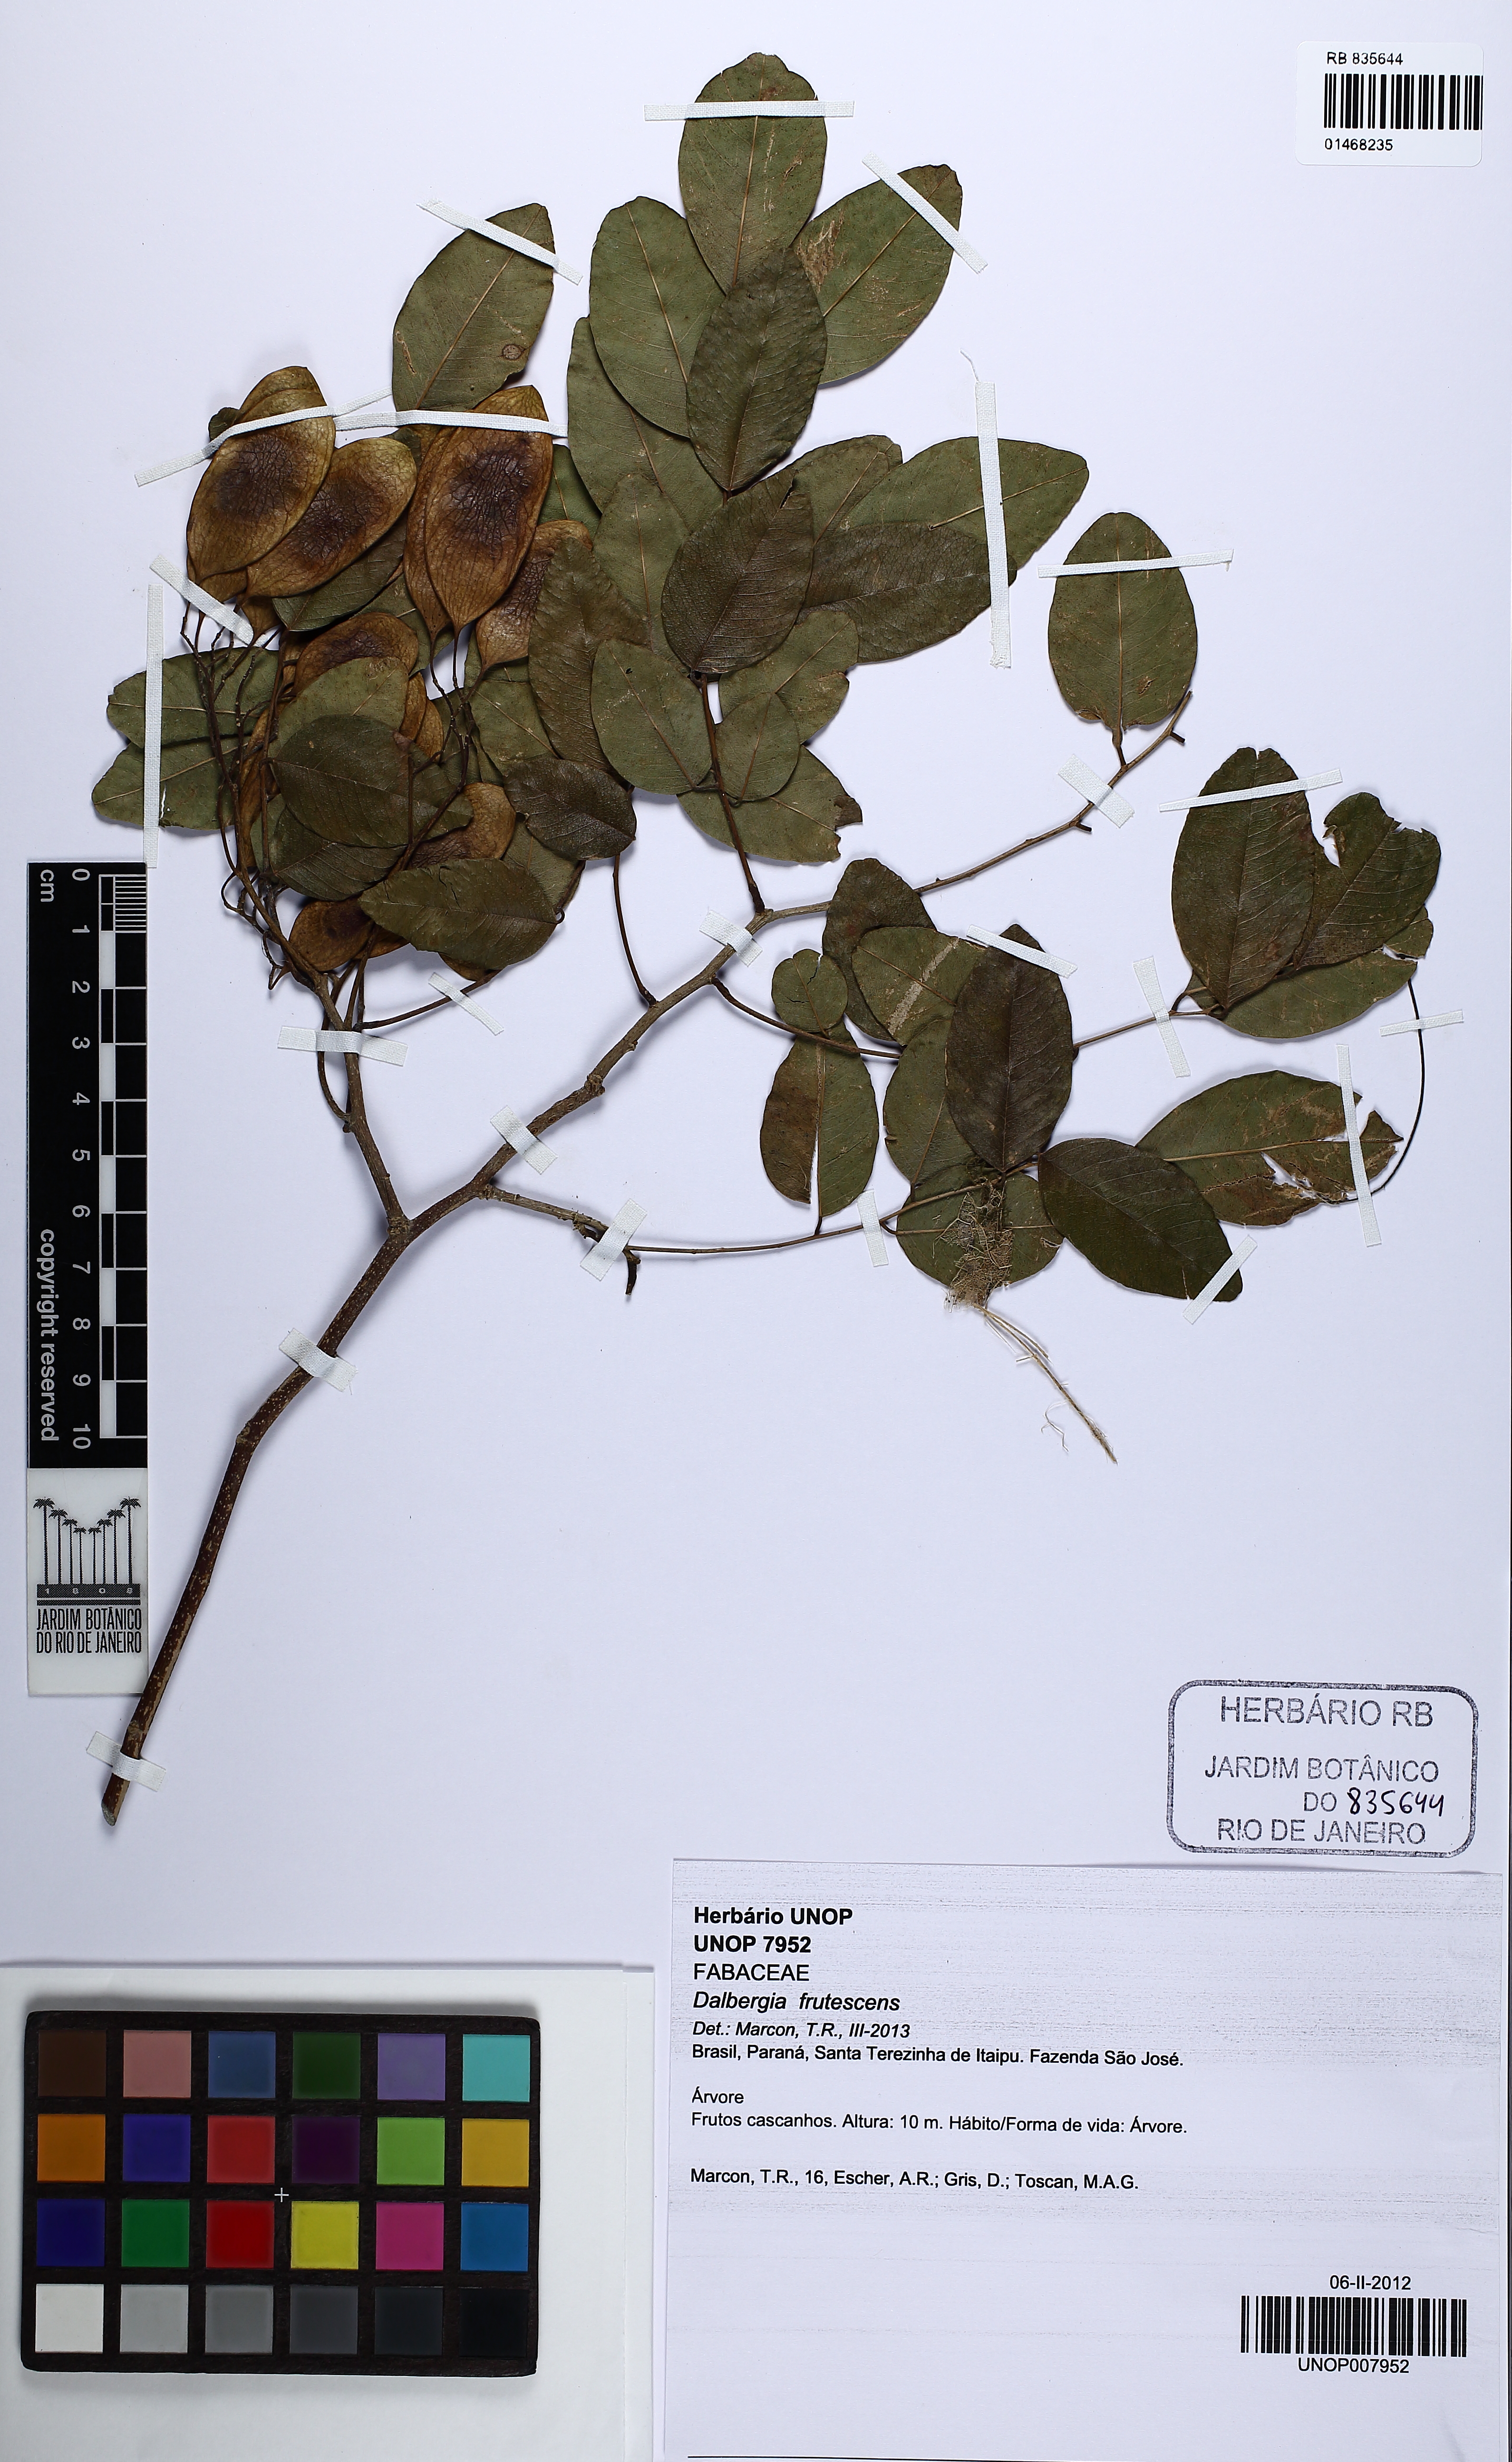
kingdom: Plantae
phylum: Tracheophyta
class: Magnoliopsida
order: Fabales
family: Fabaceae
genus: Dalbergia
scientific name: Dalbergia frutescens
